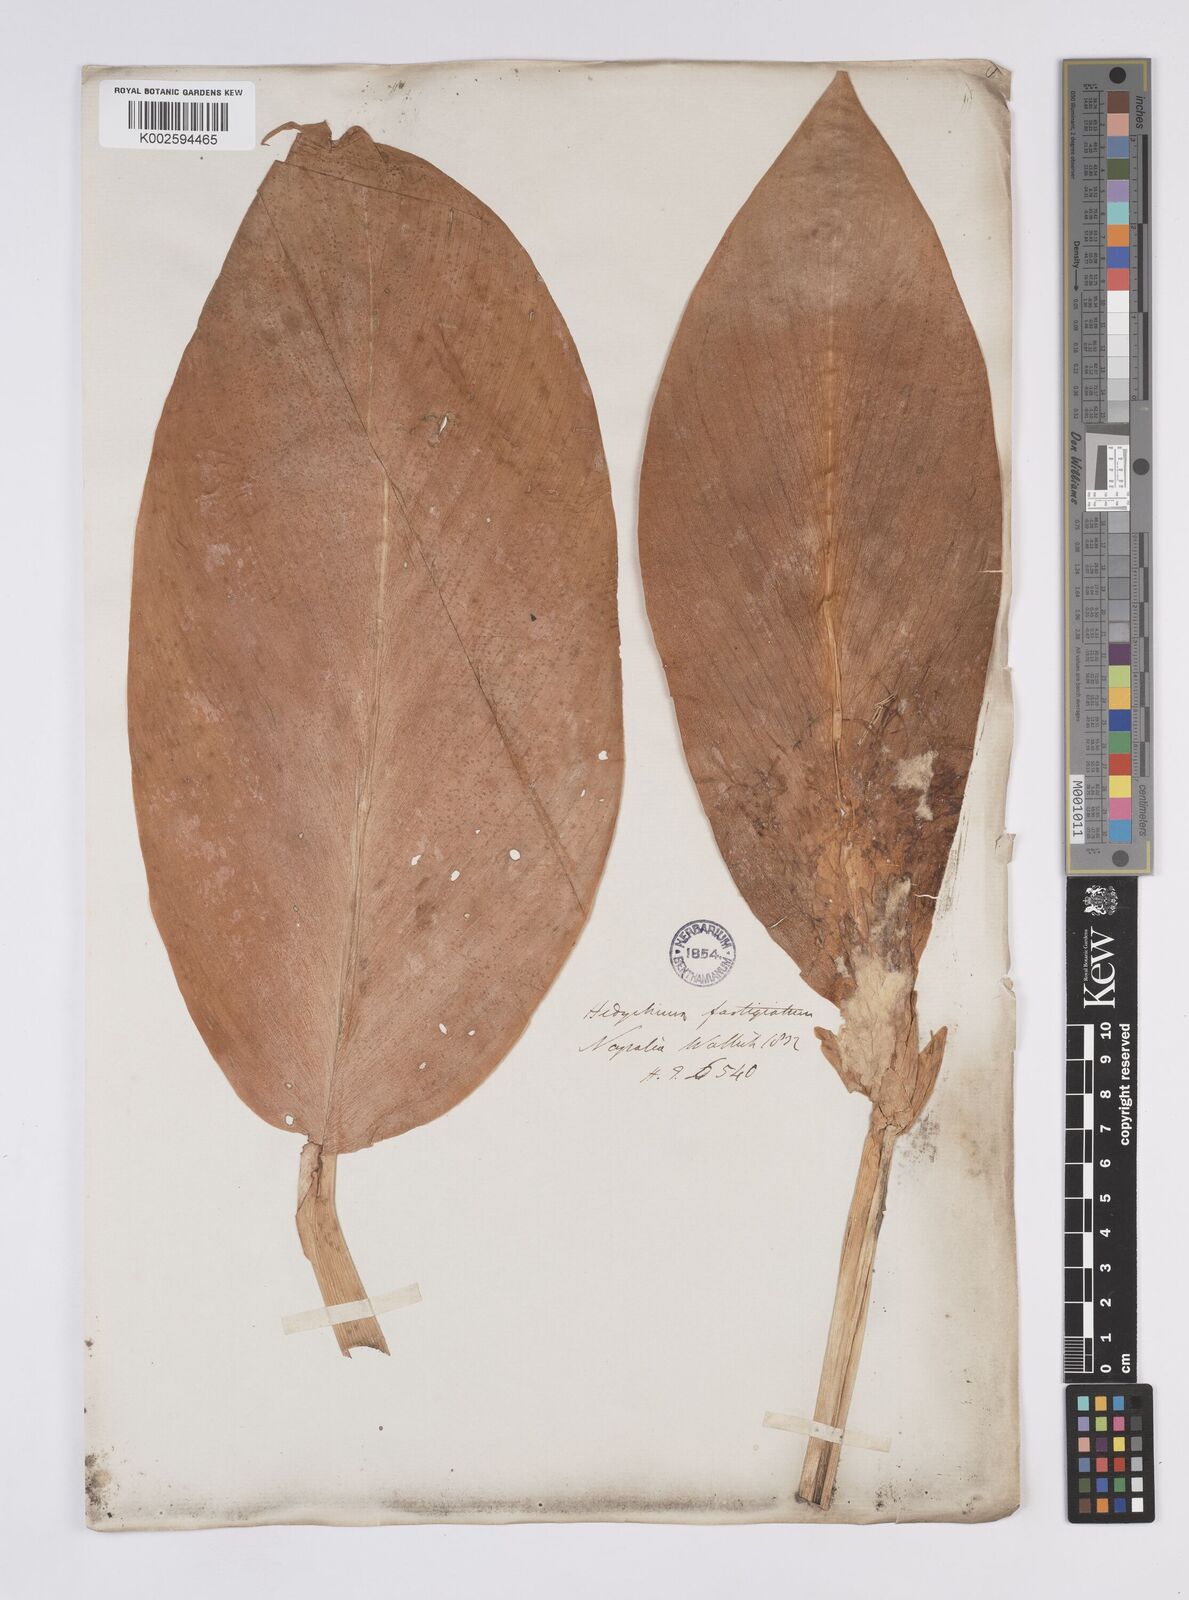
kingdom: Plantae
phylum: Tracheophyta
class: Liliopsida
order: Zingiberales
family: Zingiberaceae
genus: Hedychium
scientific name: Hedychium ellipticum
